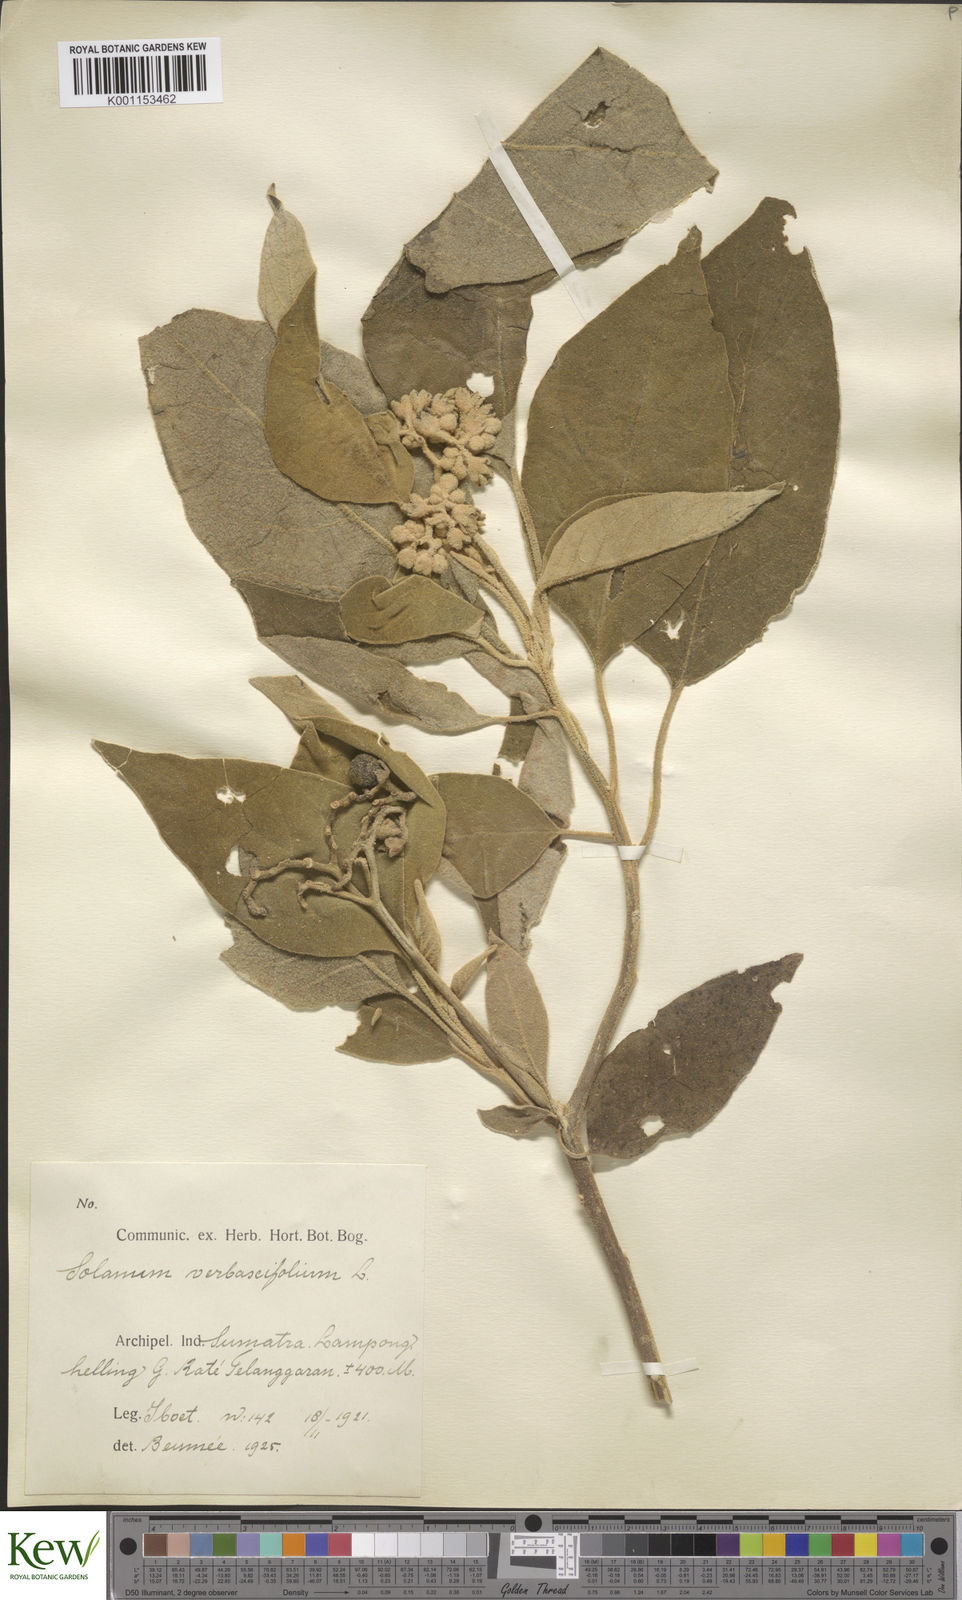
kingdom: Plantae
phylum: Tracheophyta
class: Magnoliopsida
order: Solanales
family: Solanaceae
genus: Solanum
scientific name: Solanum donianum
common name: Mullein nightshade
